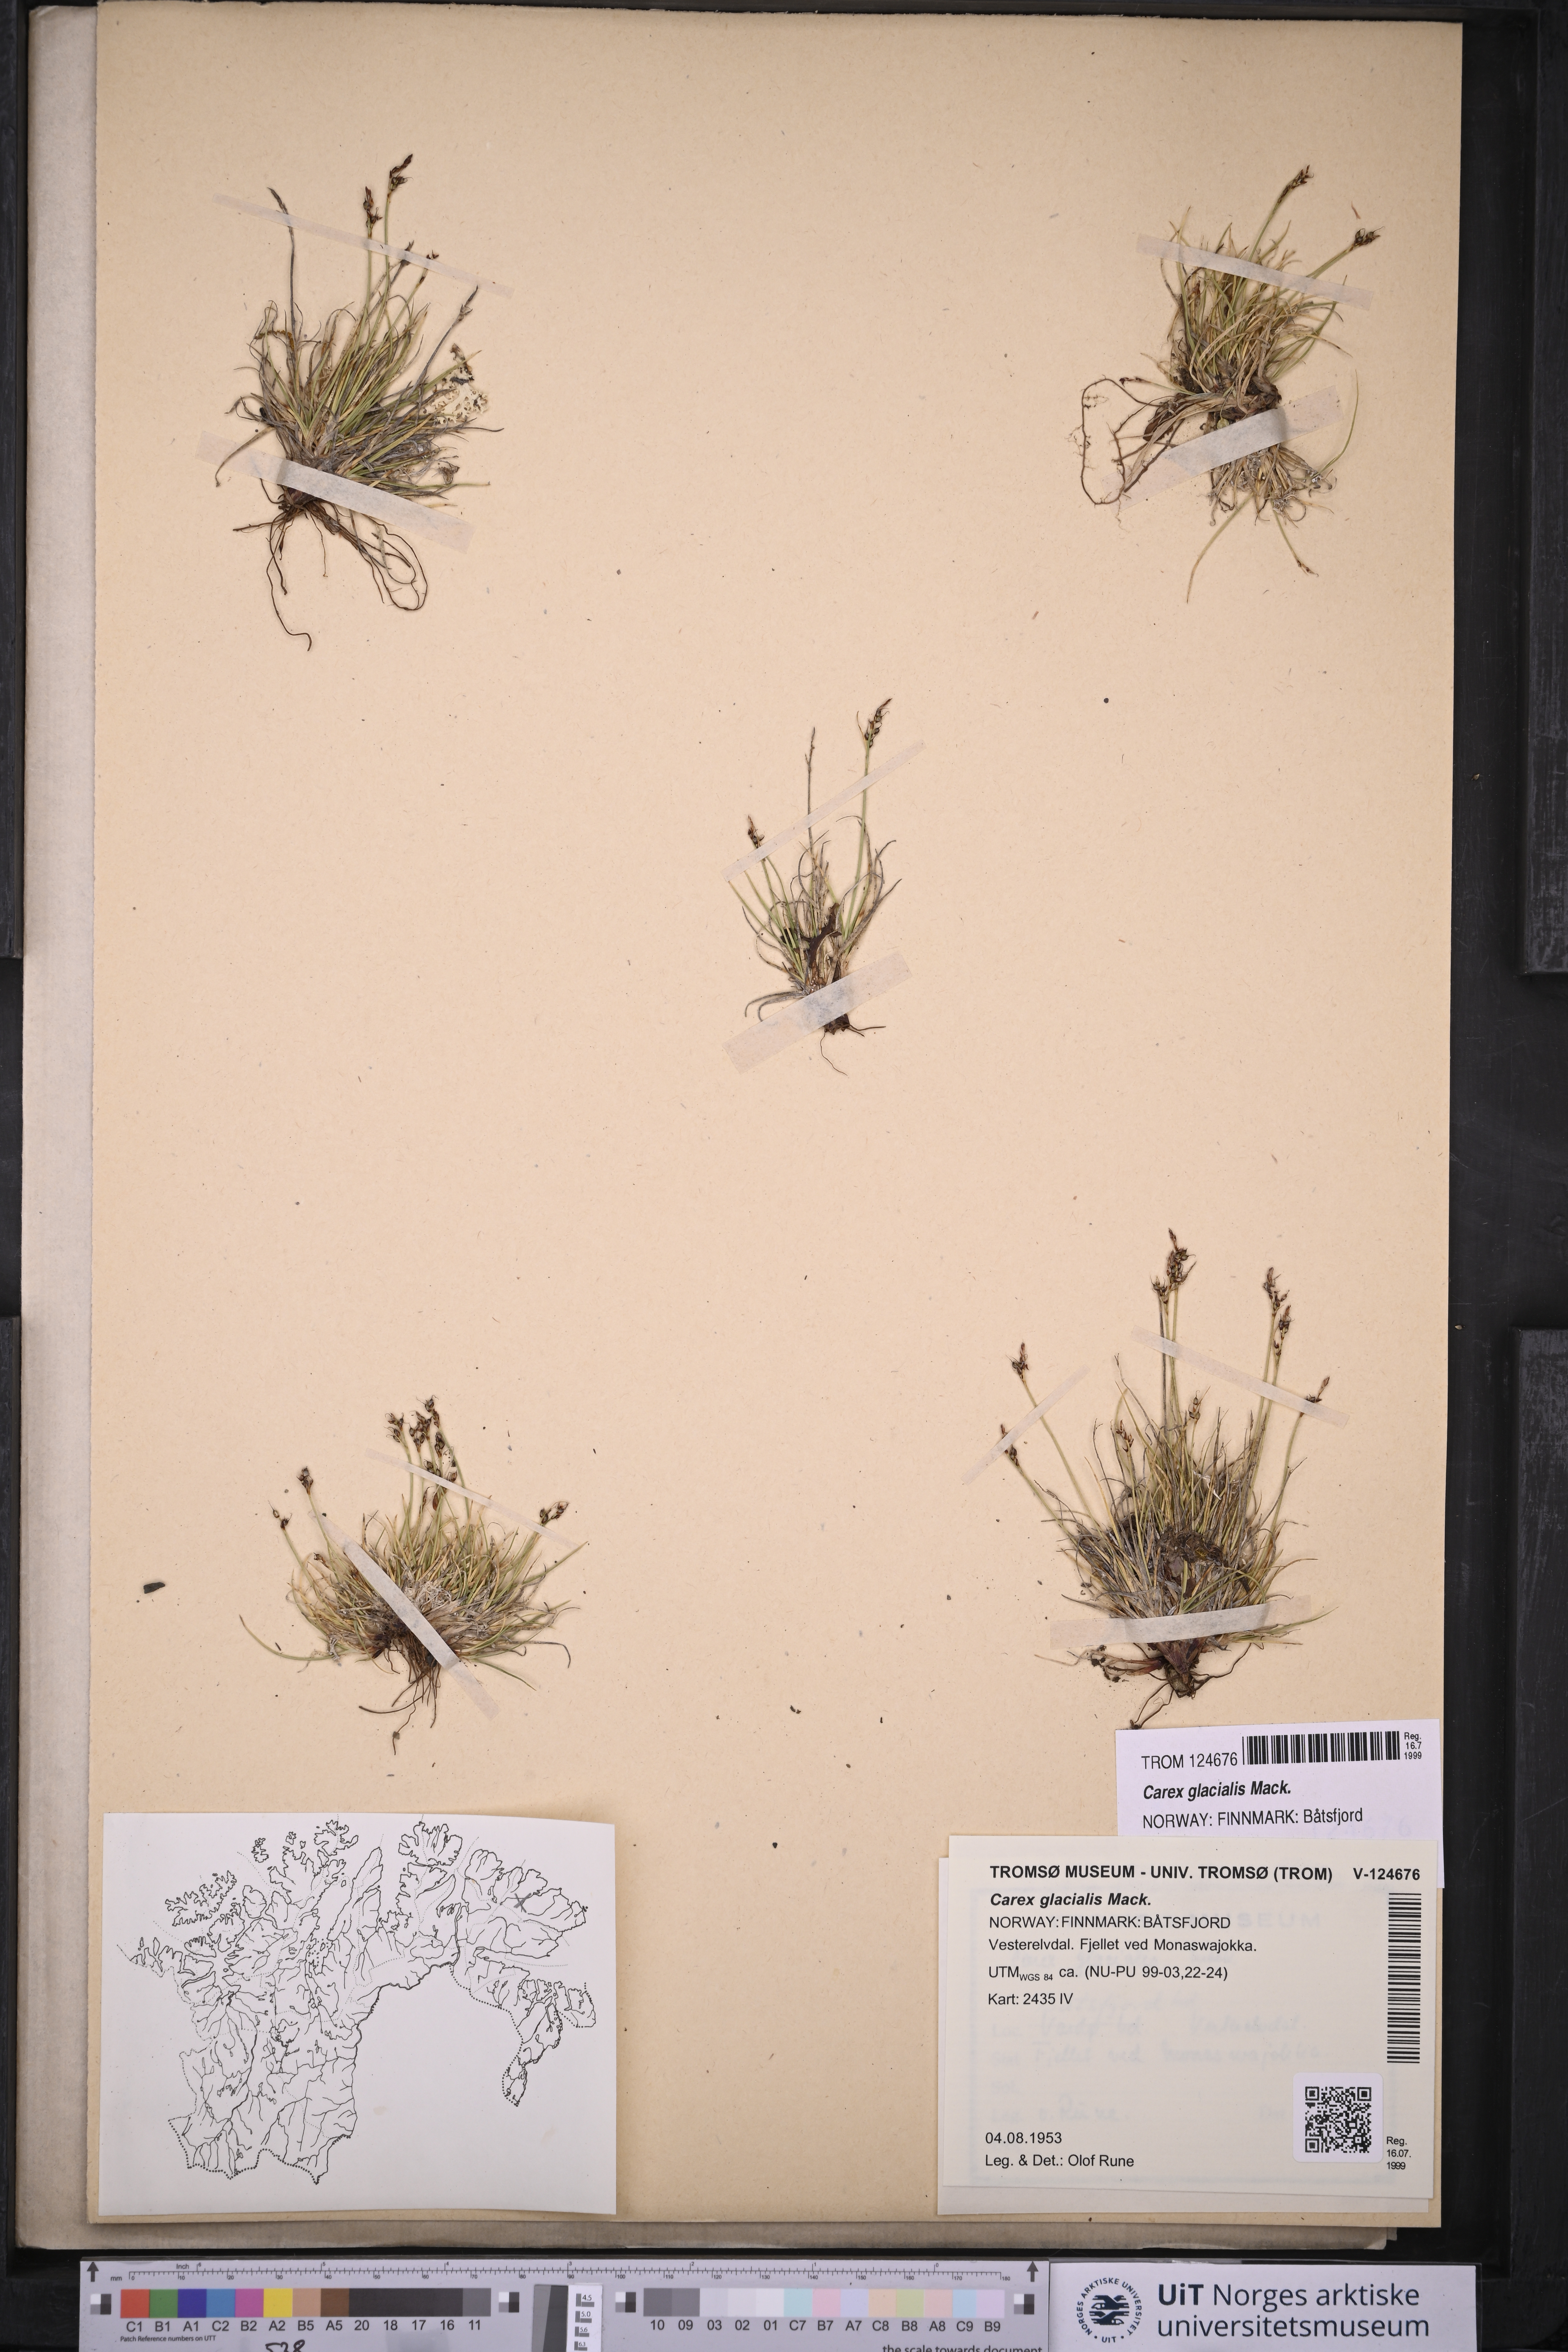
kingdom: Plantae
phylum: Tracheophyta
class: Liliopsida
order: Poales
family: Cyperaceae
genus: Carex
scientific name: Carex glacialis
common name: Newfoundland sedge
